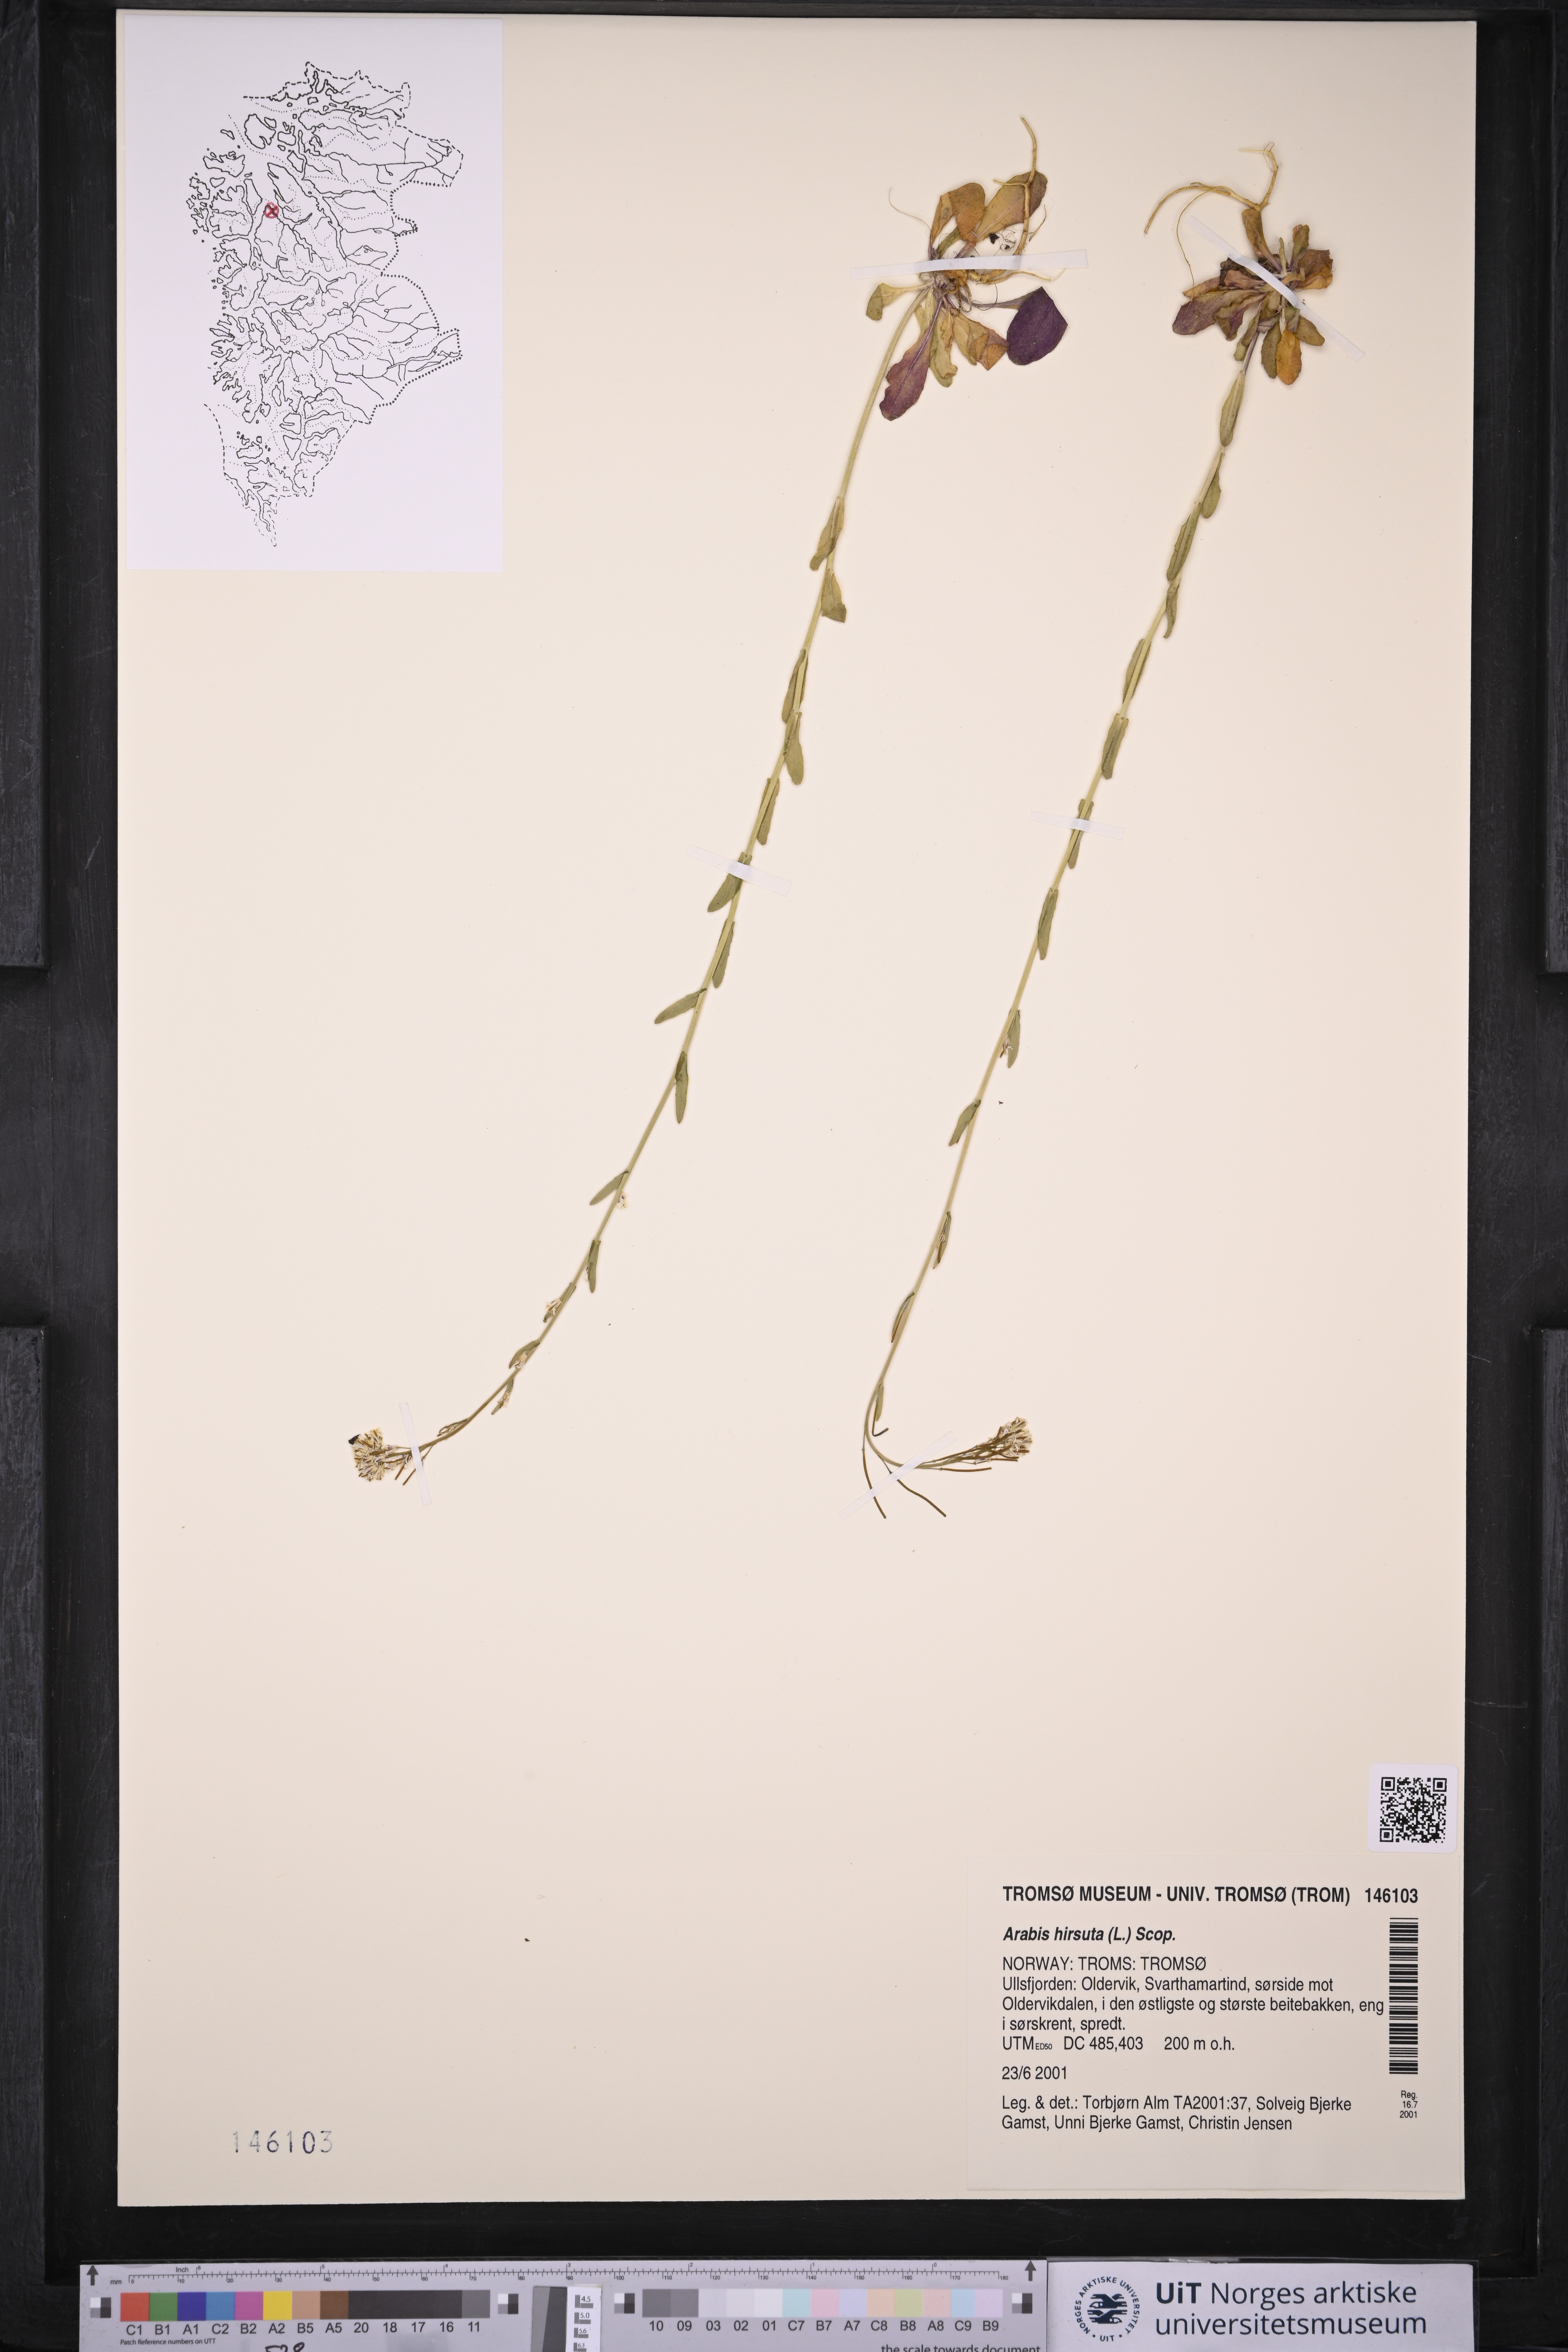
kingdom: Plantae
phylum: Tracheophyta
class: Magnoliopsida
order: Brassicales
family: Brassicaceae
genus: Arabis
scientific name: Arabis hirsuta
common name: Hairy rock-cress
